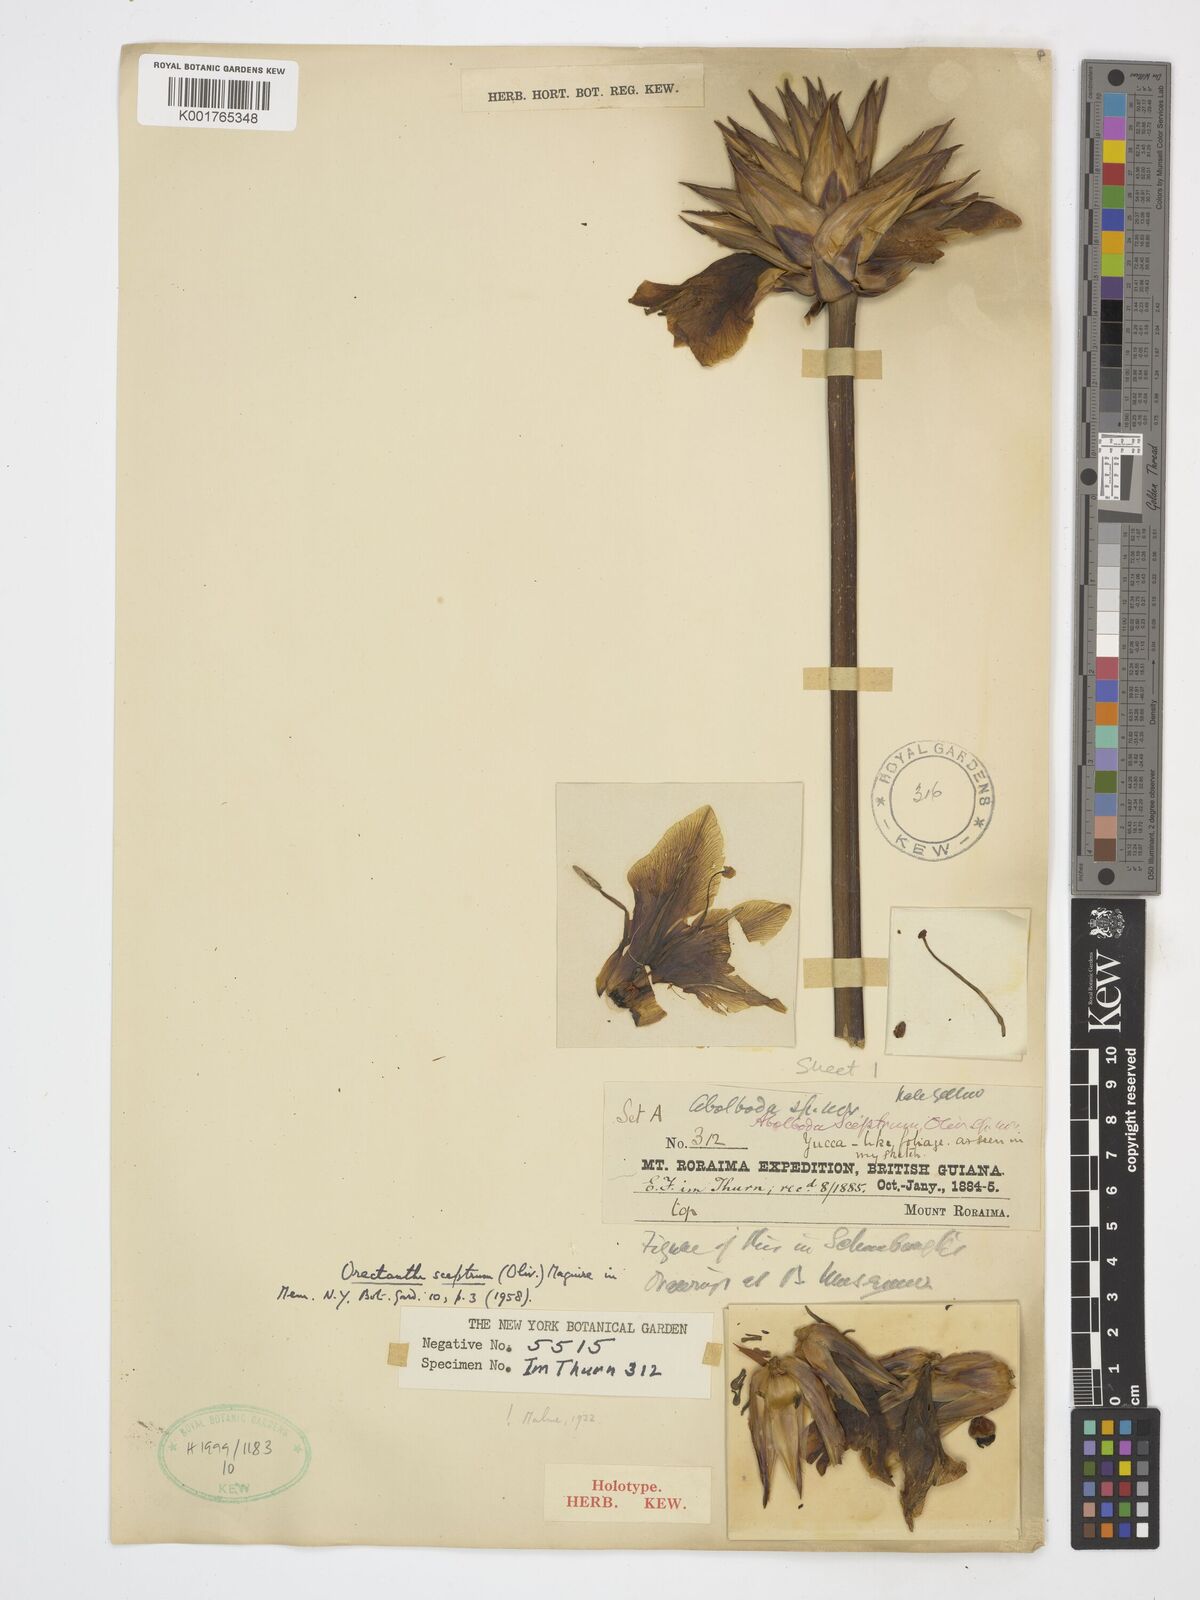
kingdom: Plantae
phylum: Tracheophyta
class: Liliopsida
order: Poales
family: Xyridaceae
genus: Orectanthe
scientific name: Orectanthe sceptrum
